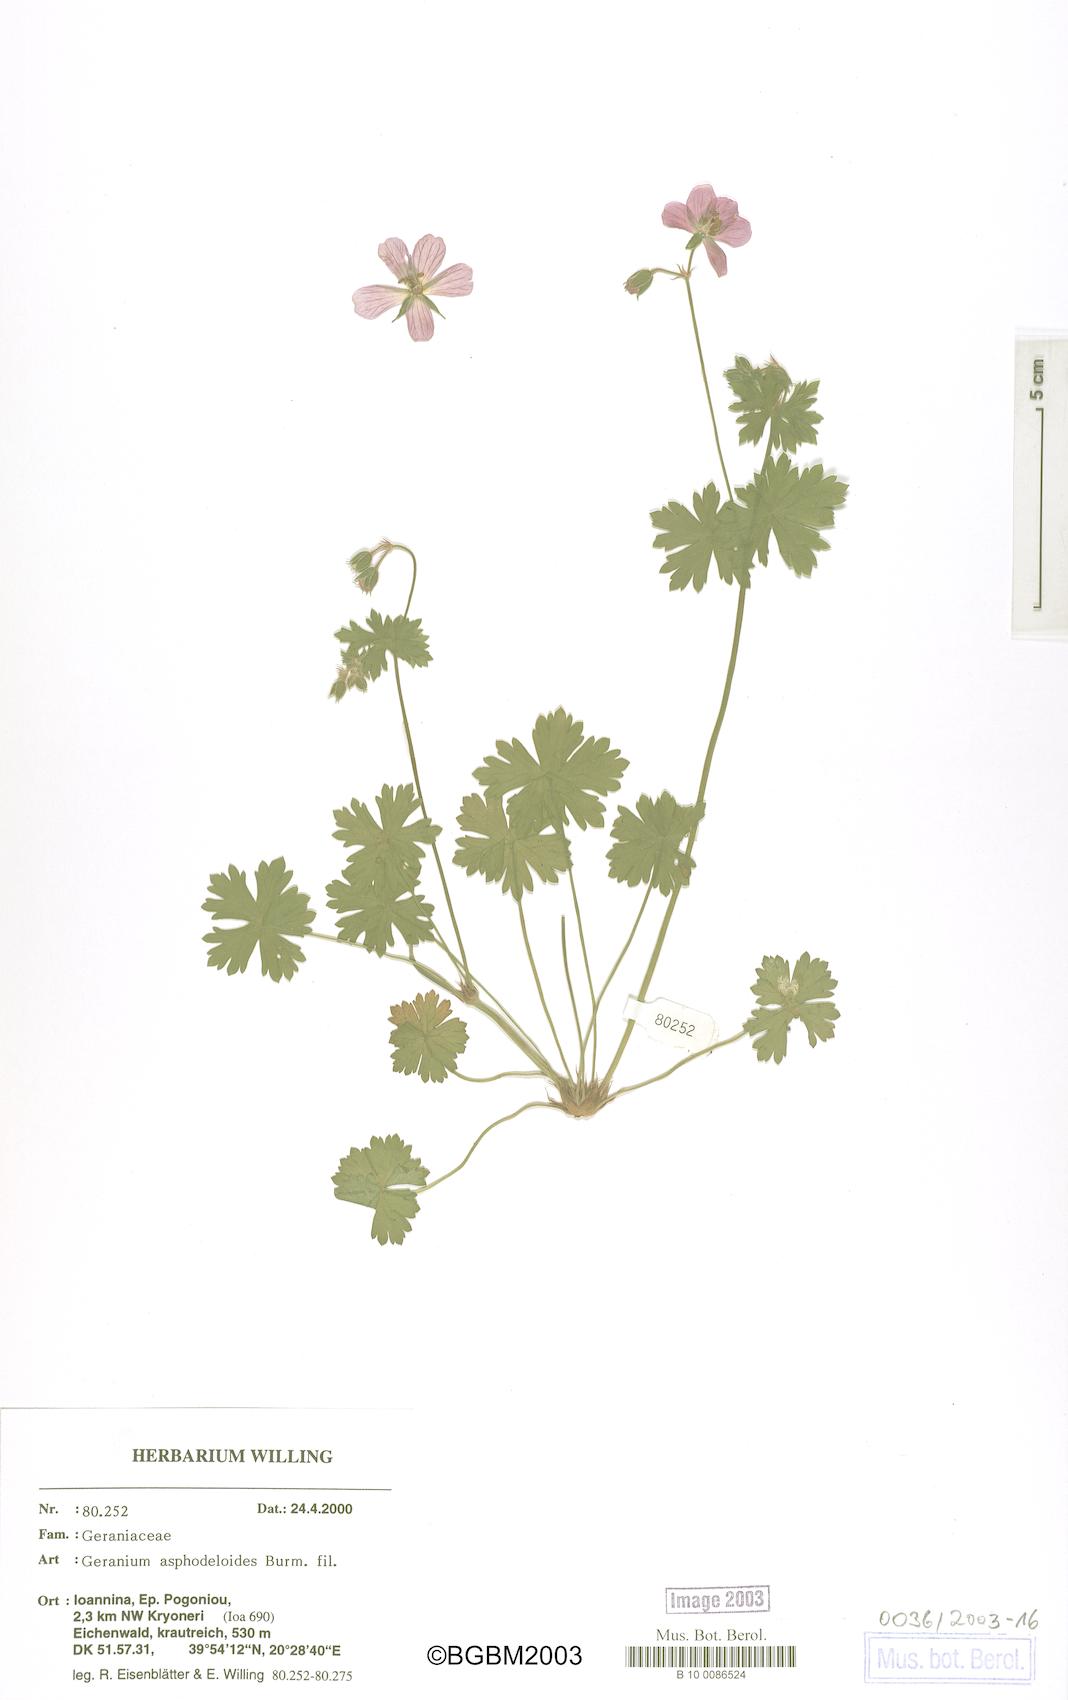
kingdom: Plantae
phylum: Tracheophyta
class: Magnoliopsida
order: Geraniales
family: Geraniaceae
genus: Geranium
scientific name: Geranium asphodeloides
